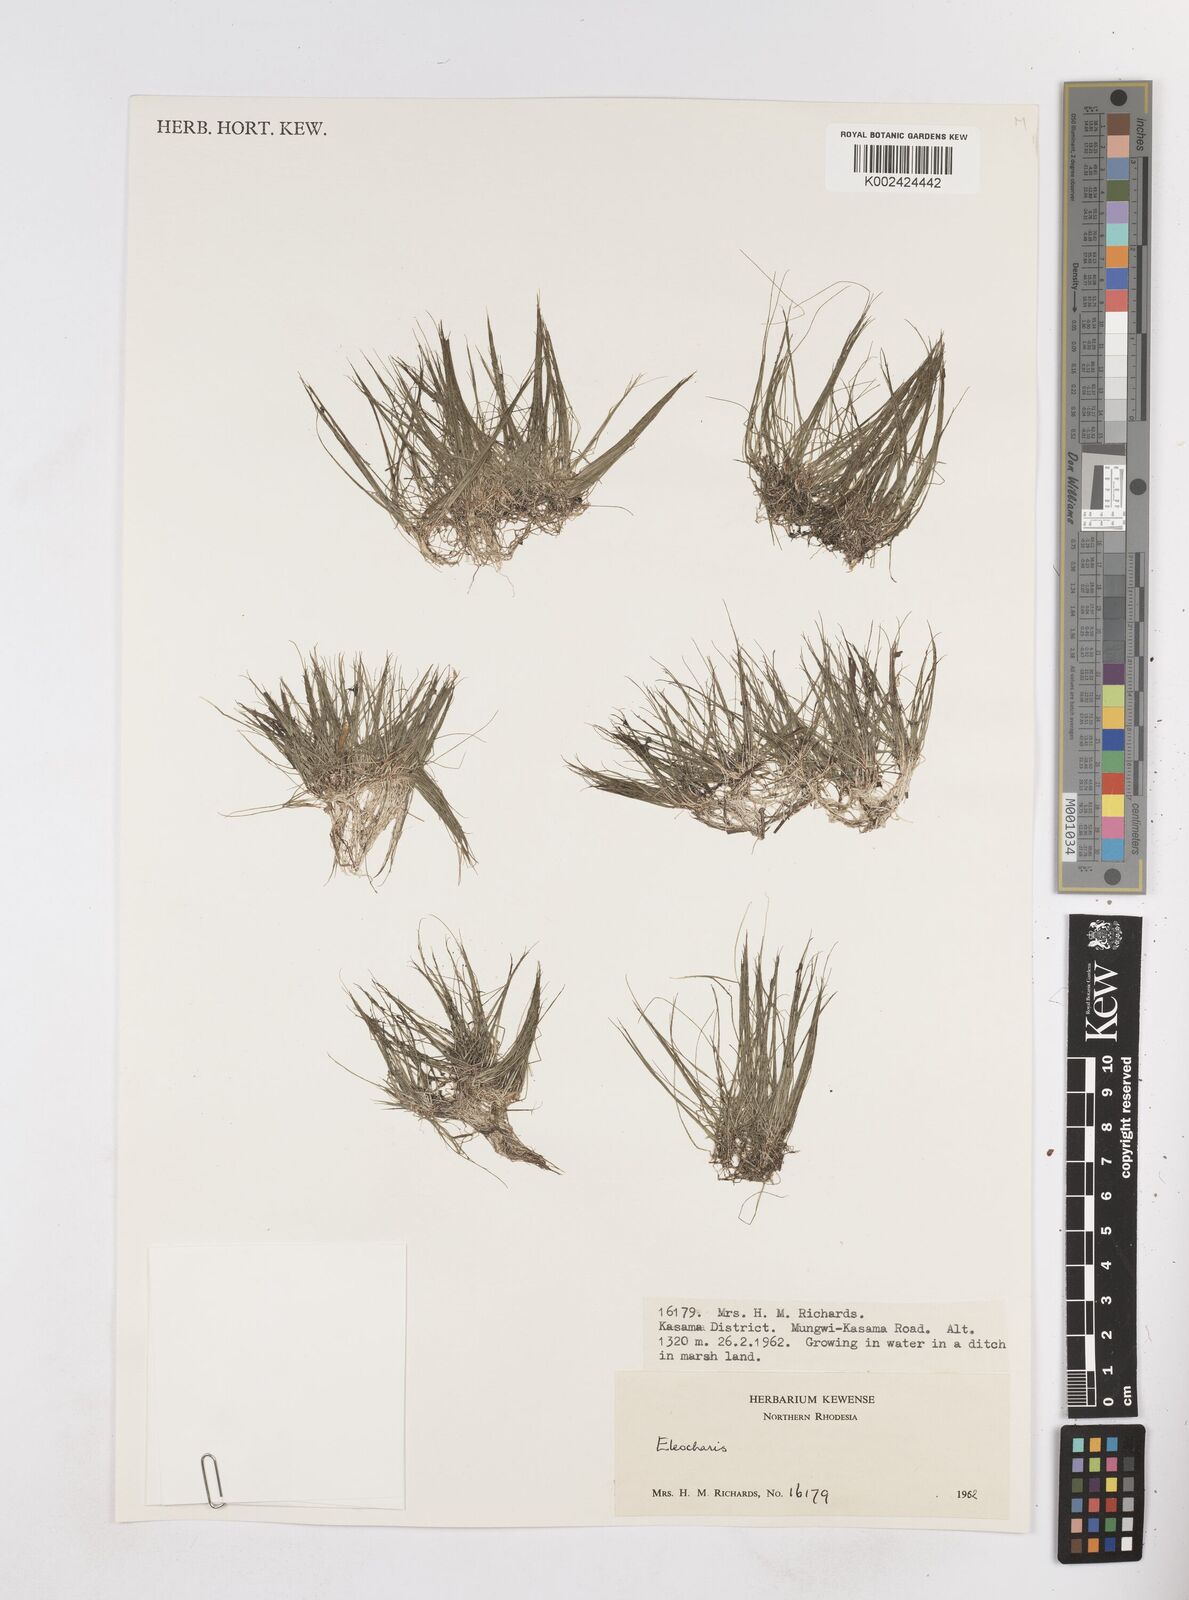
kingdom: Plantae
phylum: Tracheophyta
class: Liliopsida
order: Poales
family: Cyperaceae
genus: Eleocharis
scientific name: Eleocharis
